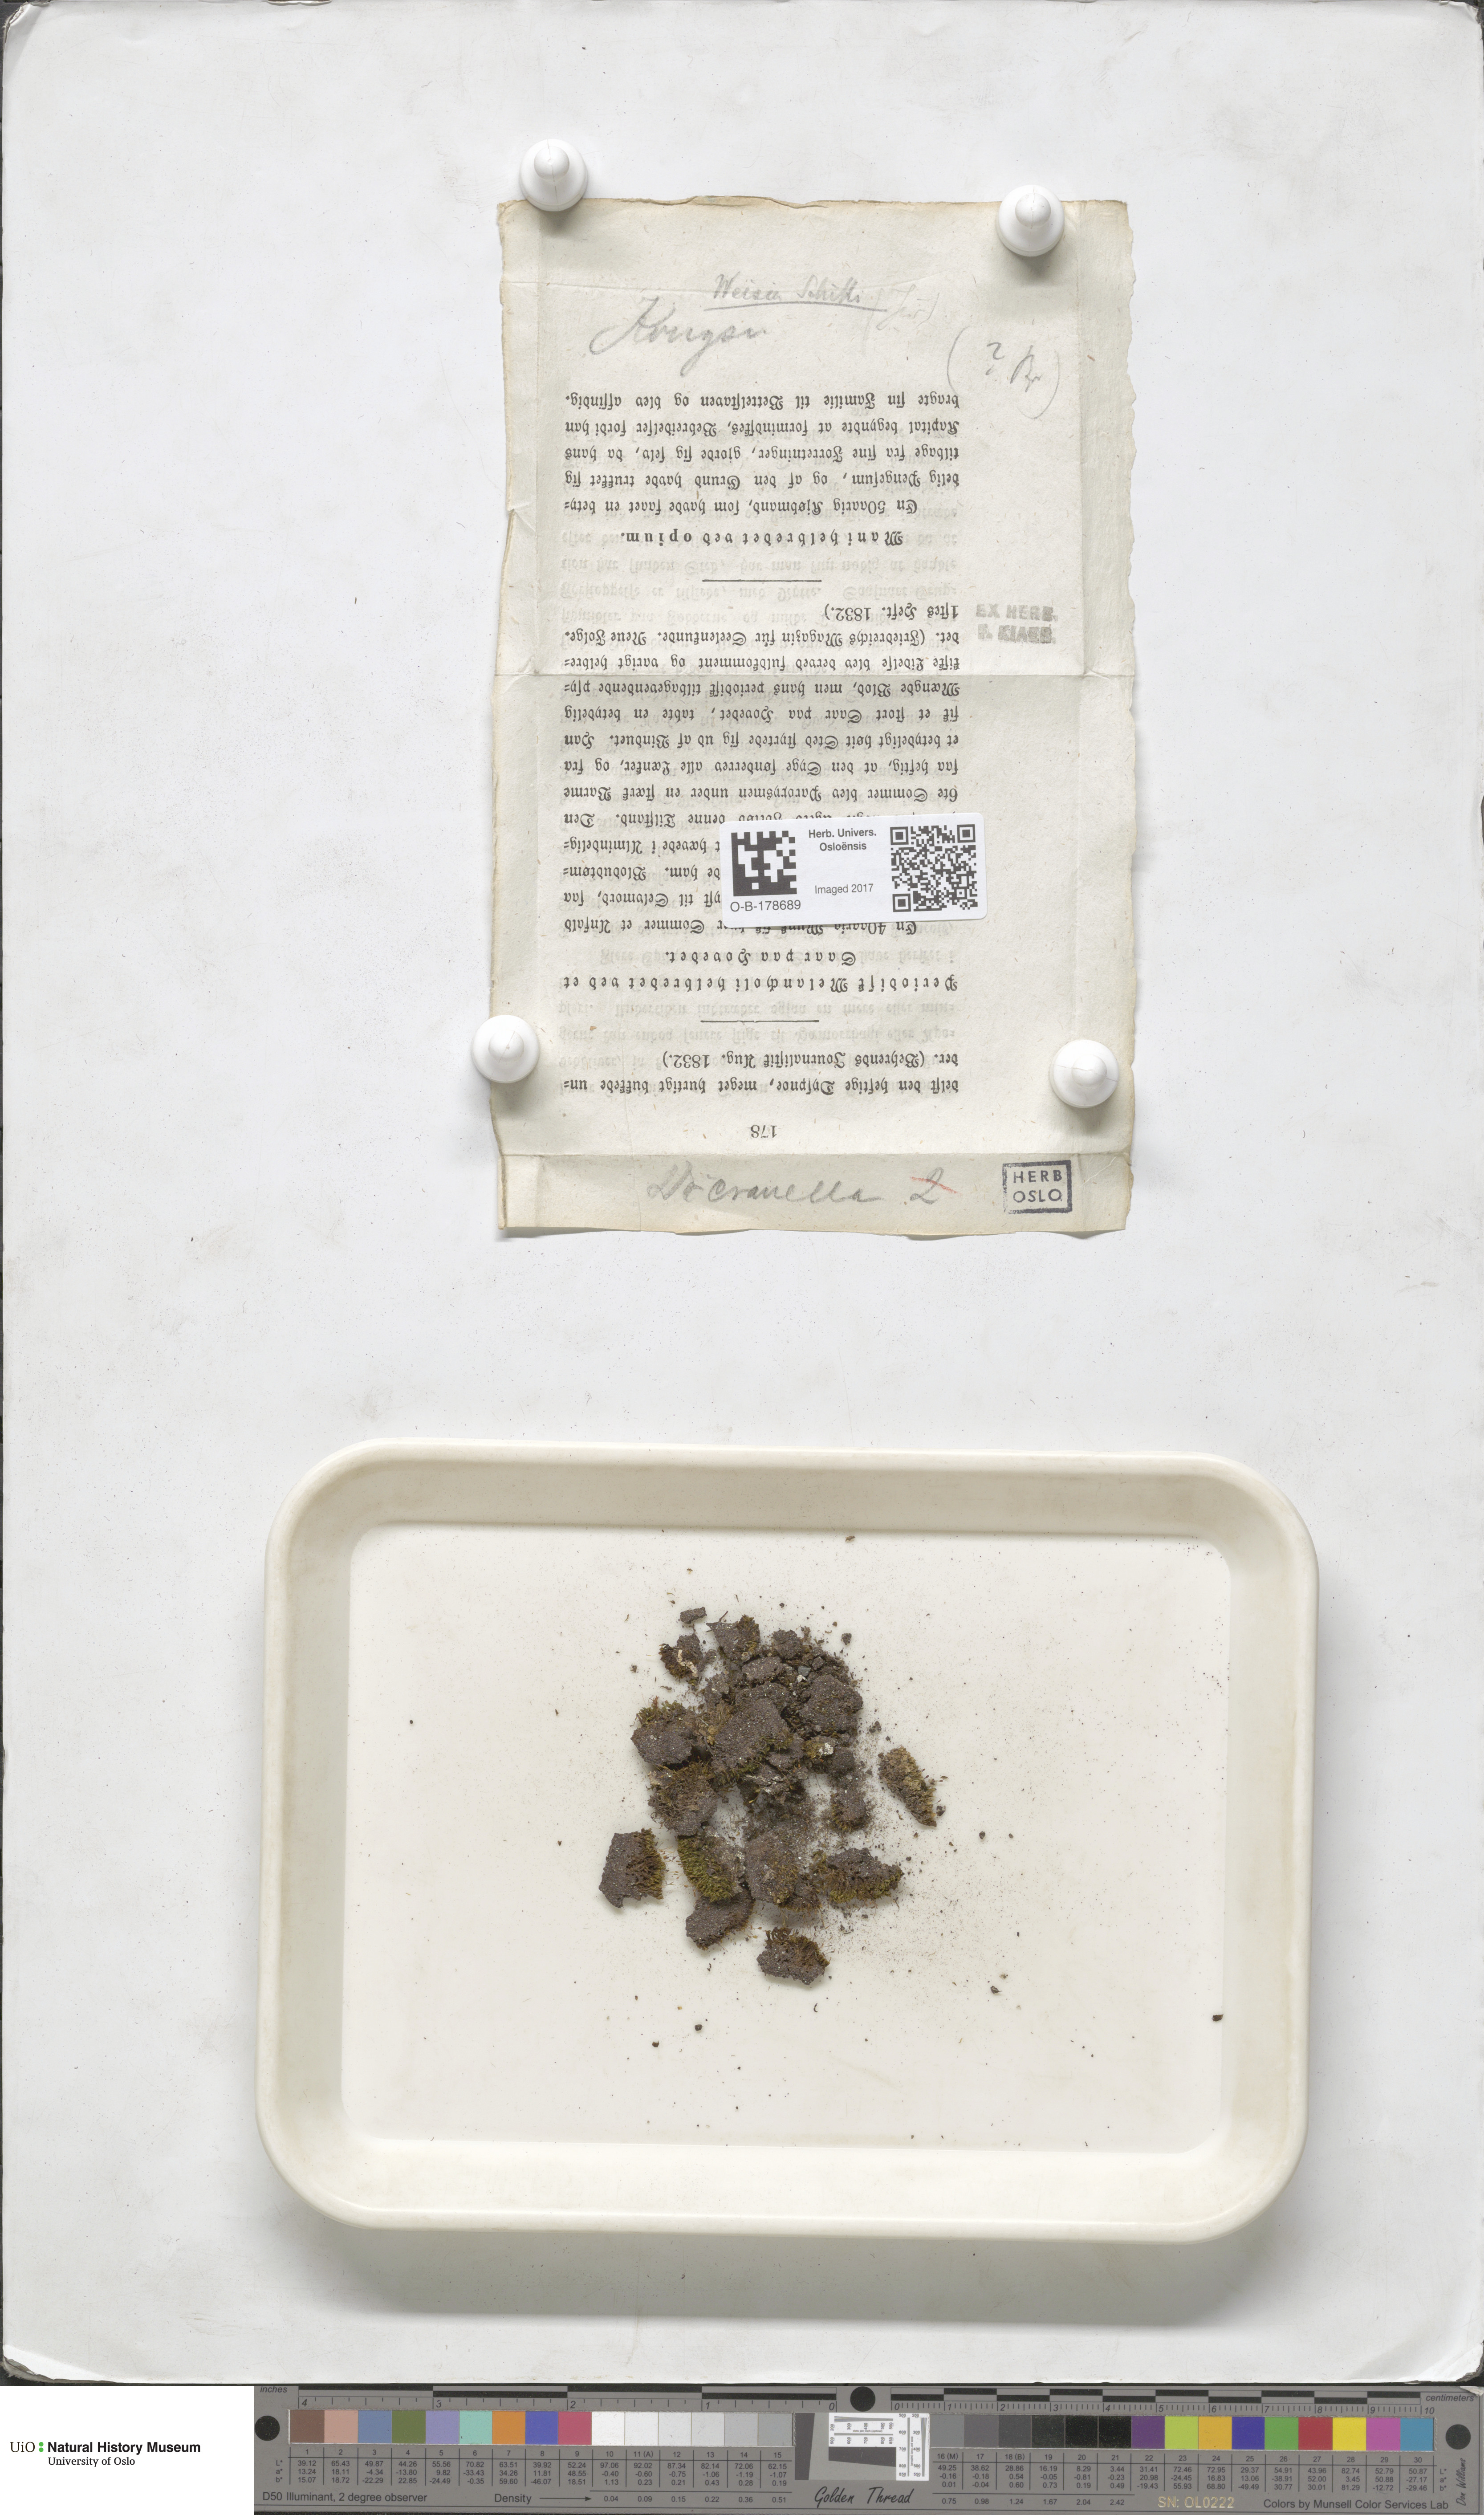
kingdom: Plantae
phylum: Bryophyta
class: Bryopsida
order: Dicranales
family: Rhabdoweisiaceae
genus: Cnestrum
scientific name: Cnestrum schisti
